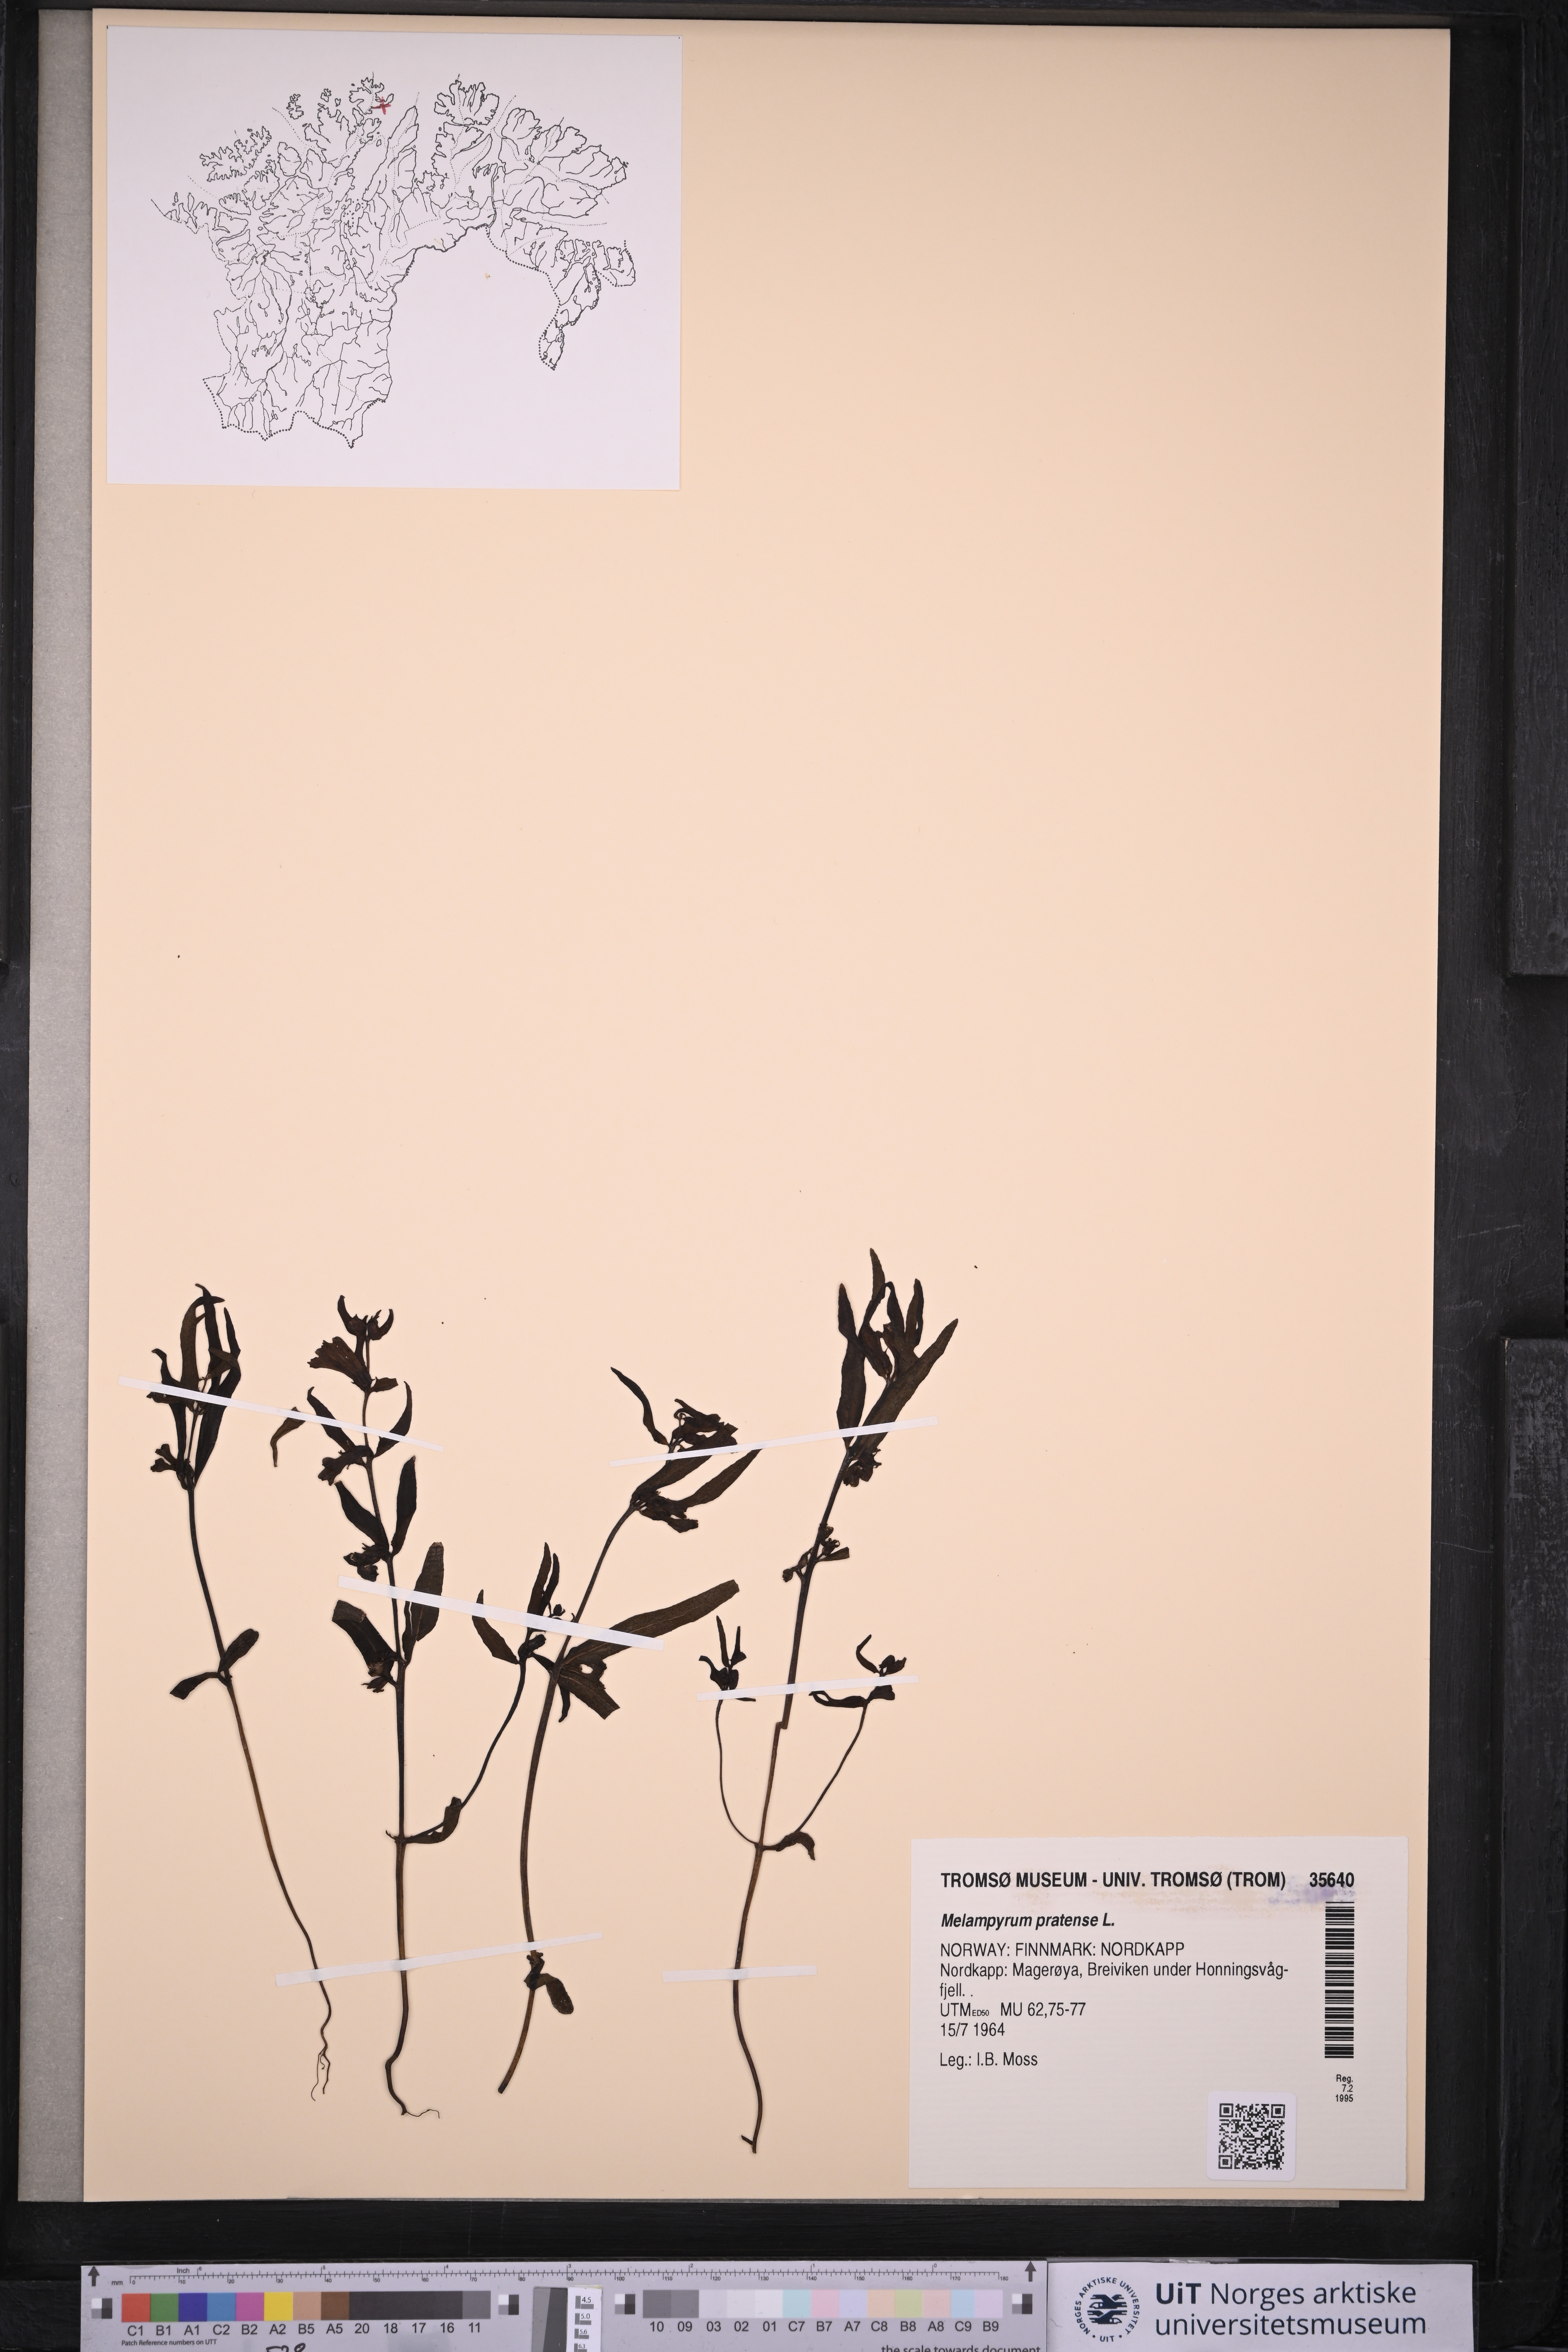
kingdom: Plantae
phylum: Tracheophyta
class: Magnoliopsida
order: Lamiales
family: Orobanchaceae
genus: Melampyrum
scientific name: Melampyrum pratense
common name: Common cow-wheat
